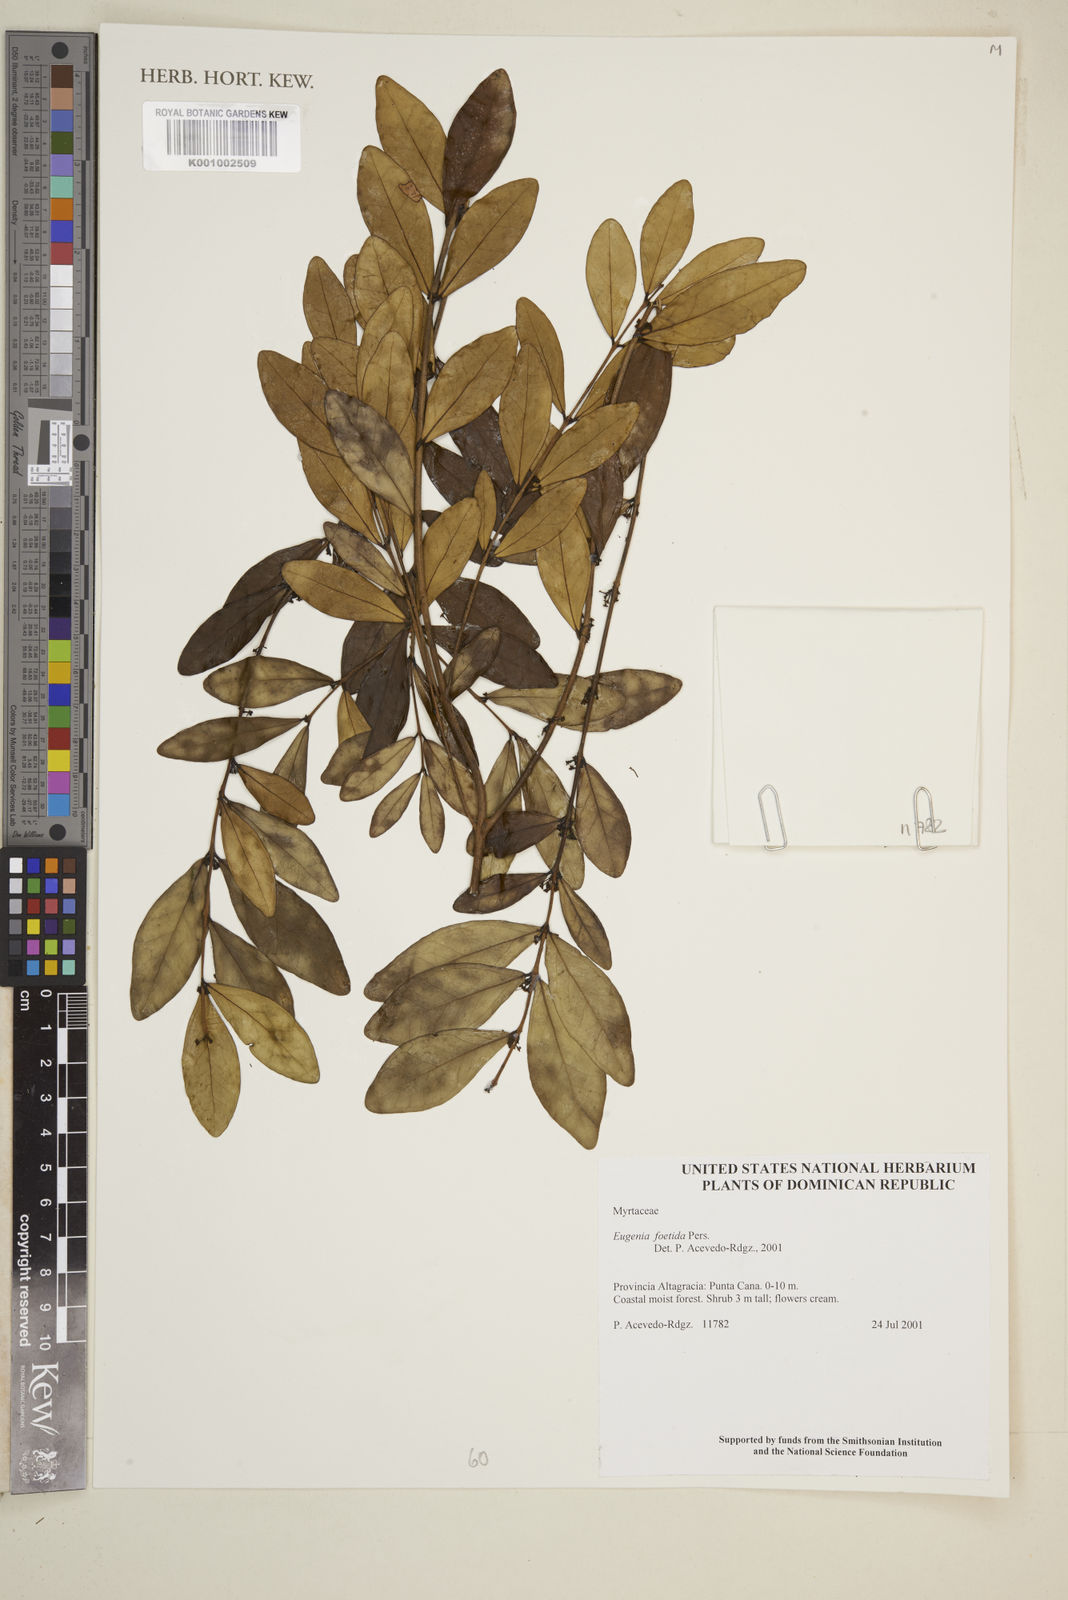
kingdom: Plantae
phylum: Tracheophyta
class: Magnoliopsida
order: Myrtales
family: Myrtaceae
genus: Eugenia
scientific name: Eugenia foetida
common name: White wattling
